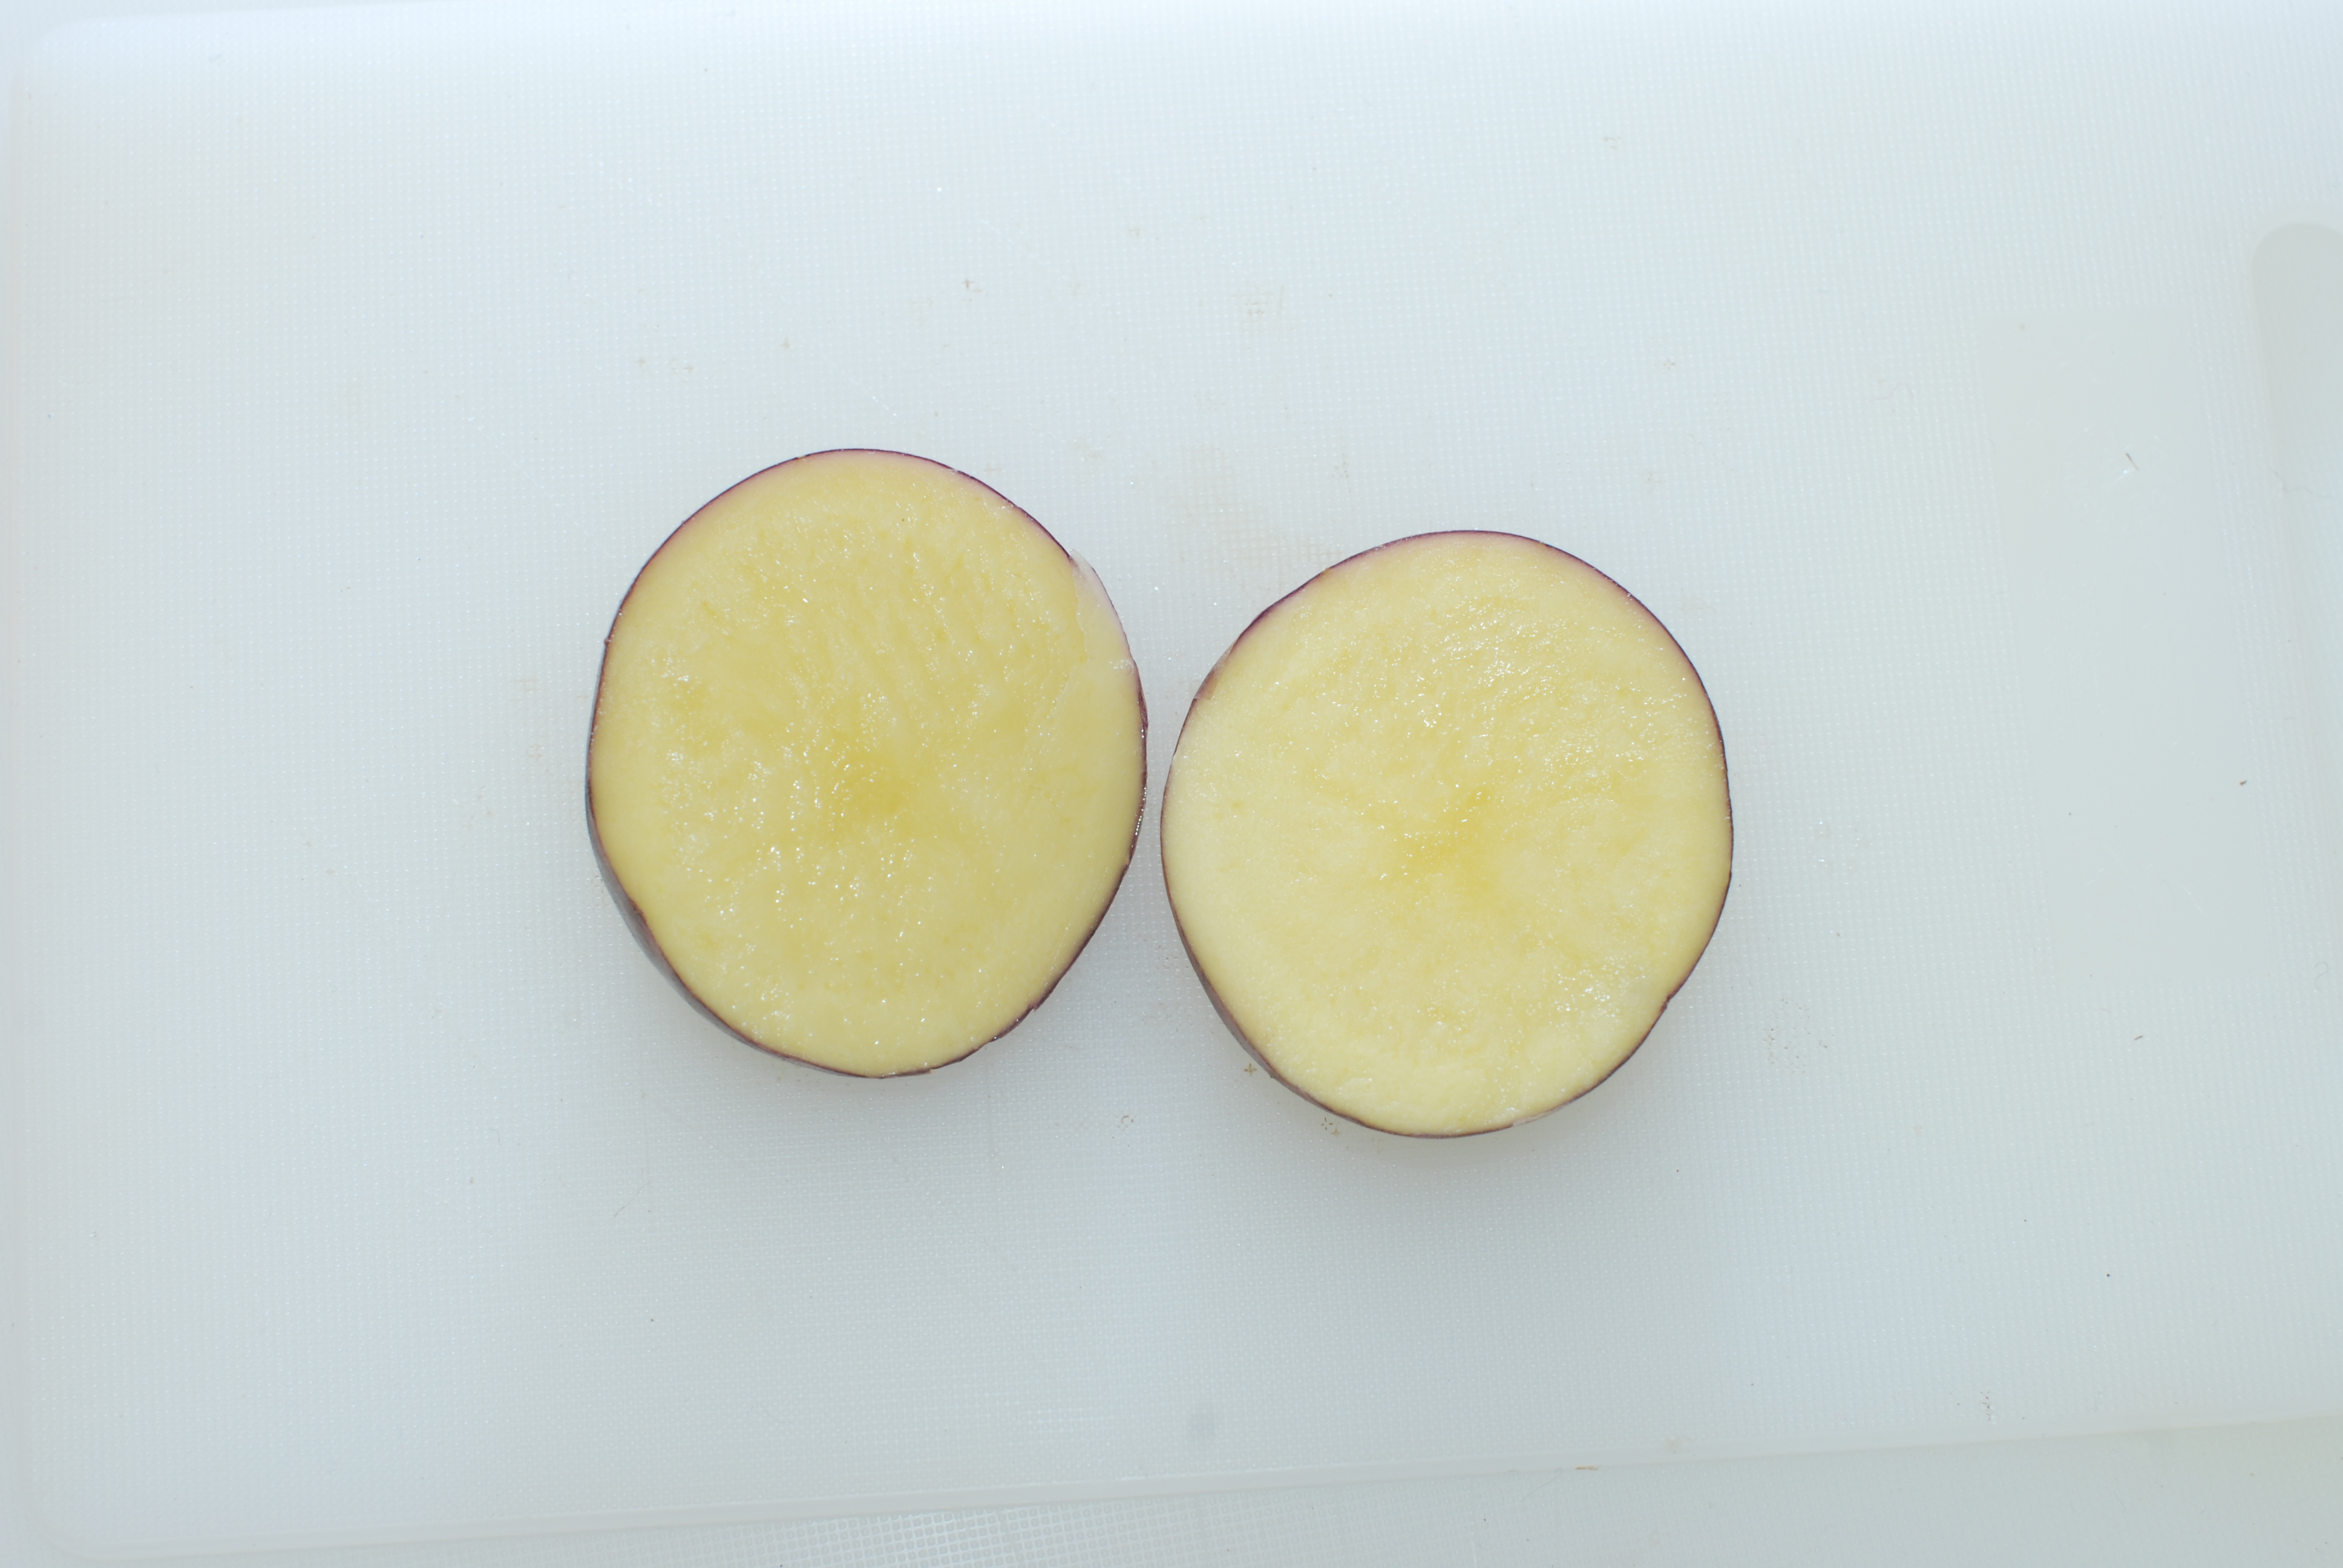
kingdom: Plantae
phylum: Tracheophyta
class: Magnoliopsida
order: Solanales
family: Solanaceae
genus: Solanum
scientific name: Solanum tuberosum
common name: Potato
